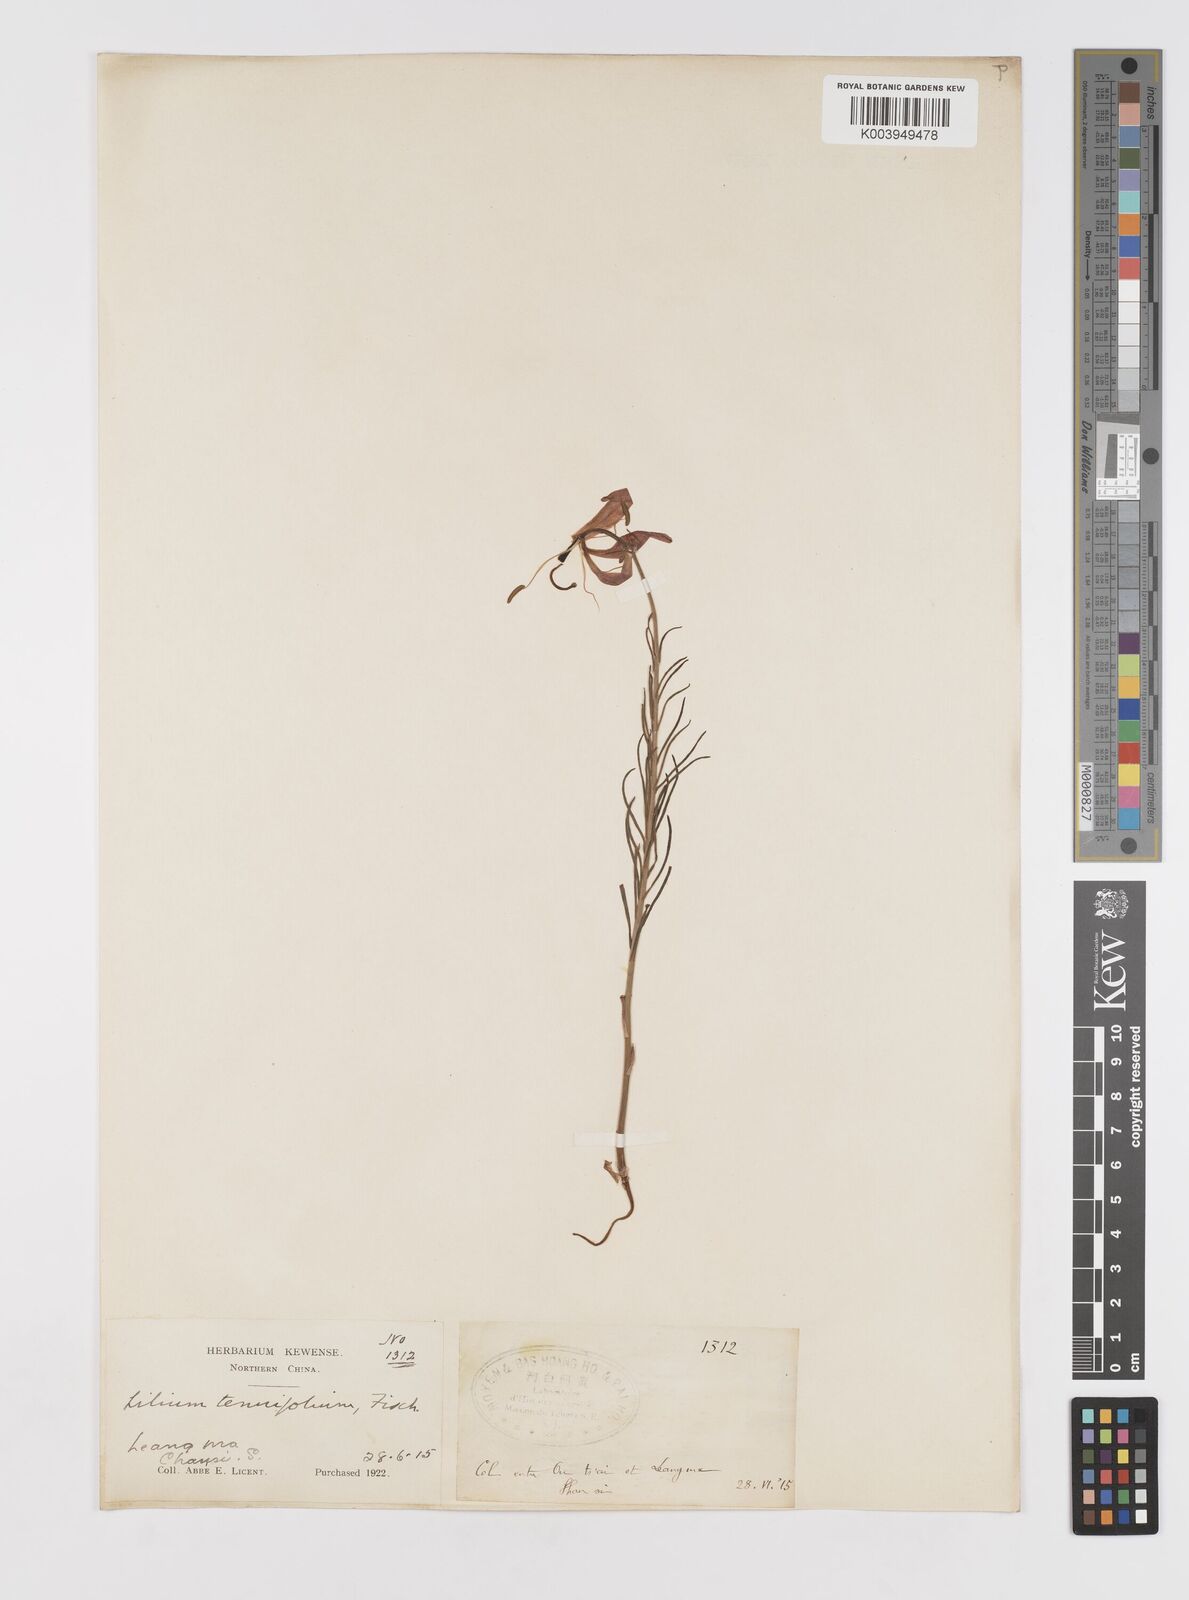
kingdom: Plantae
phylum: Tracheophyta
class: Liliopsida
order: Liliales
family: Liliaceae
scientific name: Liliaceae
